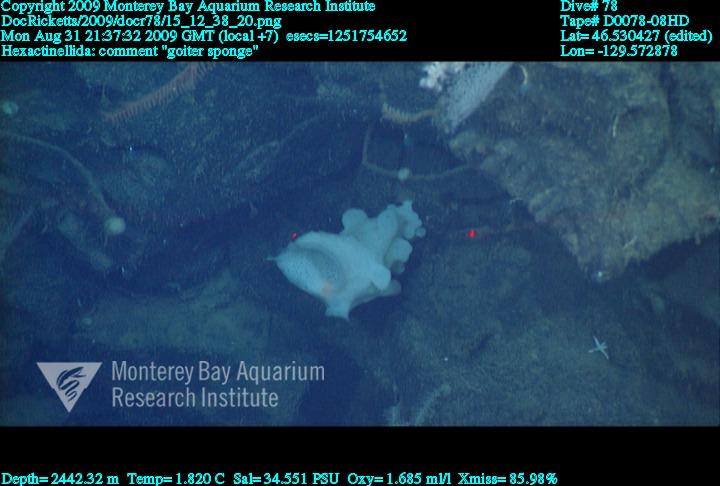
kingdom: Animalia
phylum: Porifera
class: Hexactinellida
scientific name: Hexactinellida
